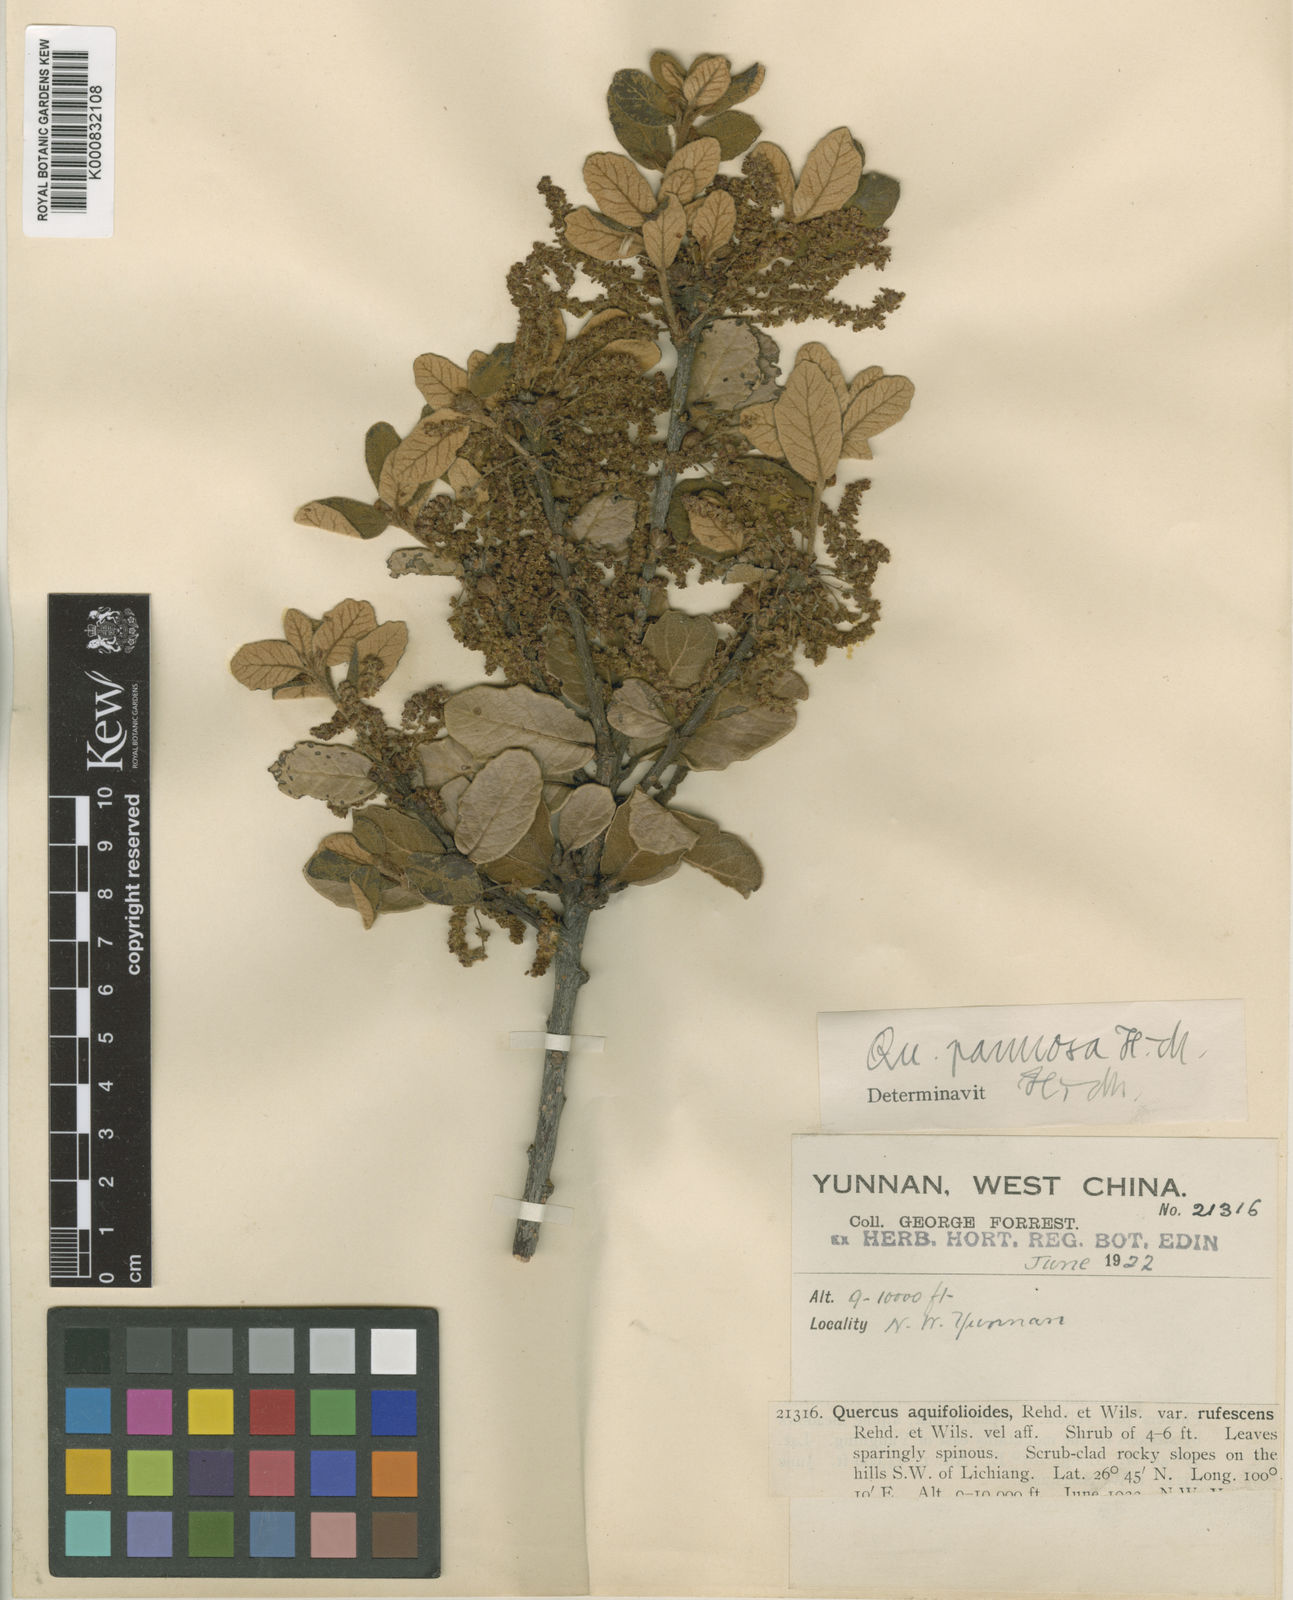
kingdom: Plantae
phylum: Tracheophyta
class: Magnoliopsida
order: Fagales
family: Fagaceae
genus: Quercus
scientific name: Quercus pannosa
